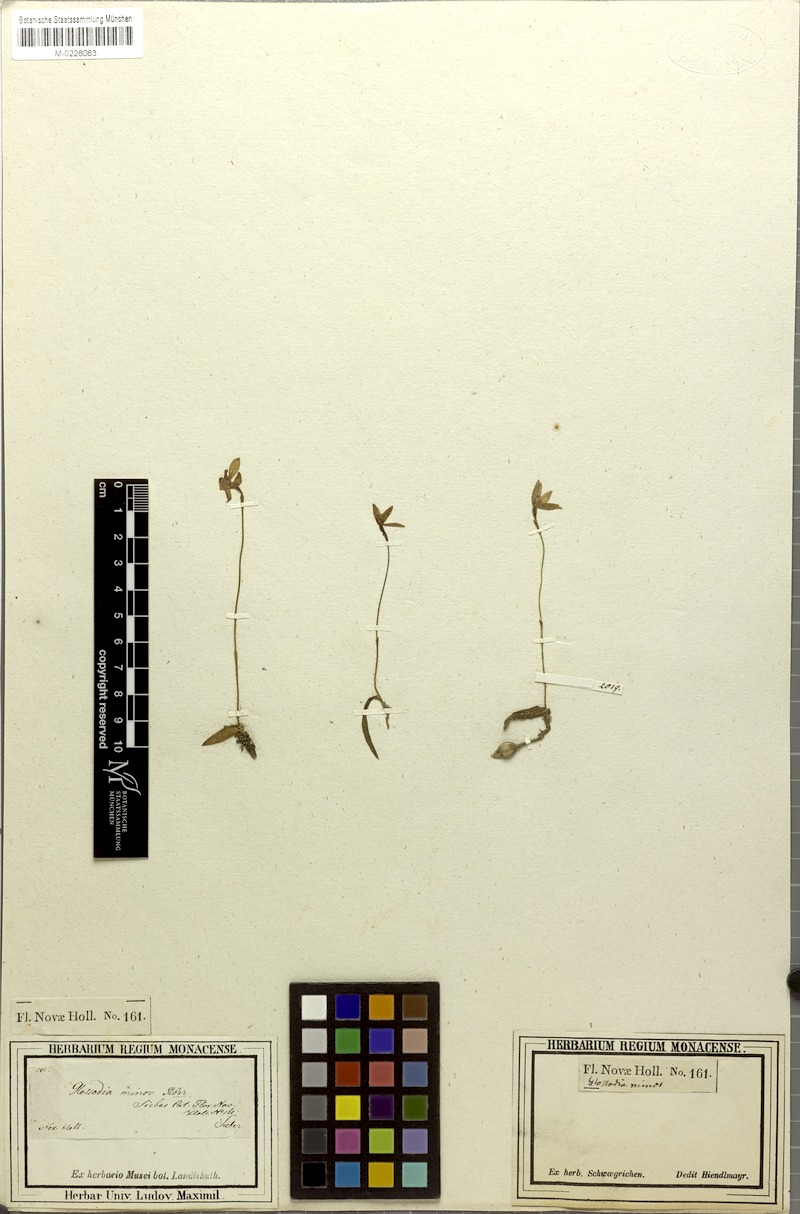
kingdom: Plantae
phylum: Tracheophyta
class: Liliopsida
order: Asparagales
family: Orchidaceae
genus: Caladenia
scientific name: Caladenia minorata
